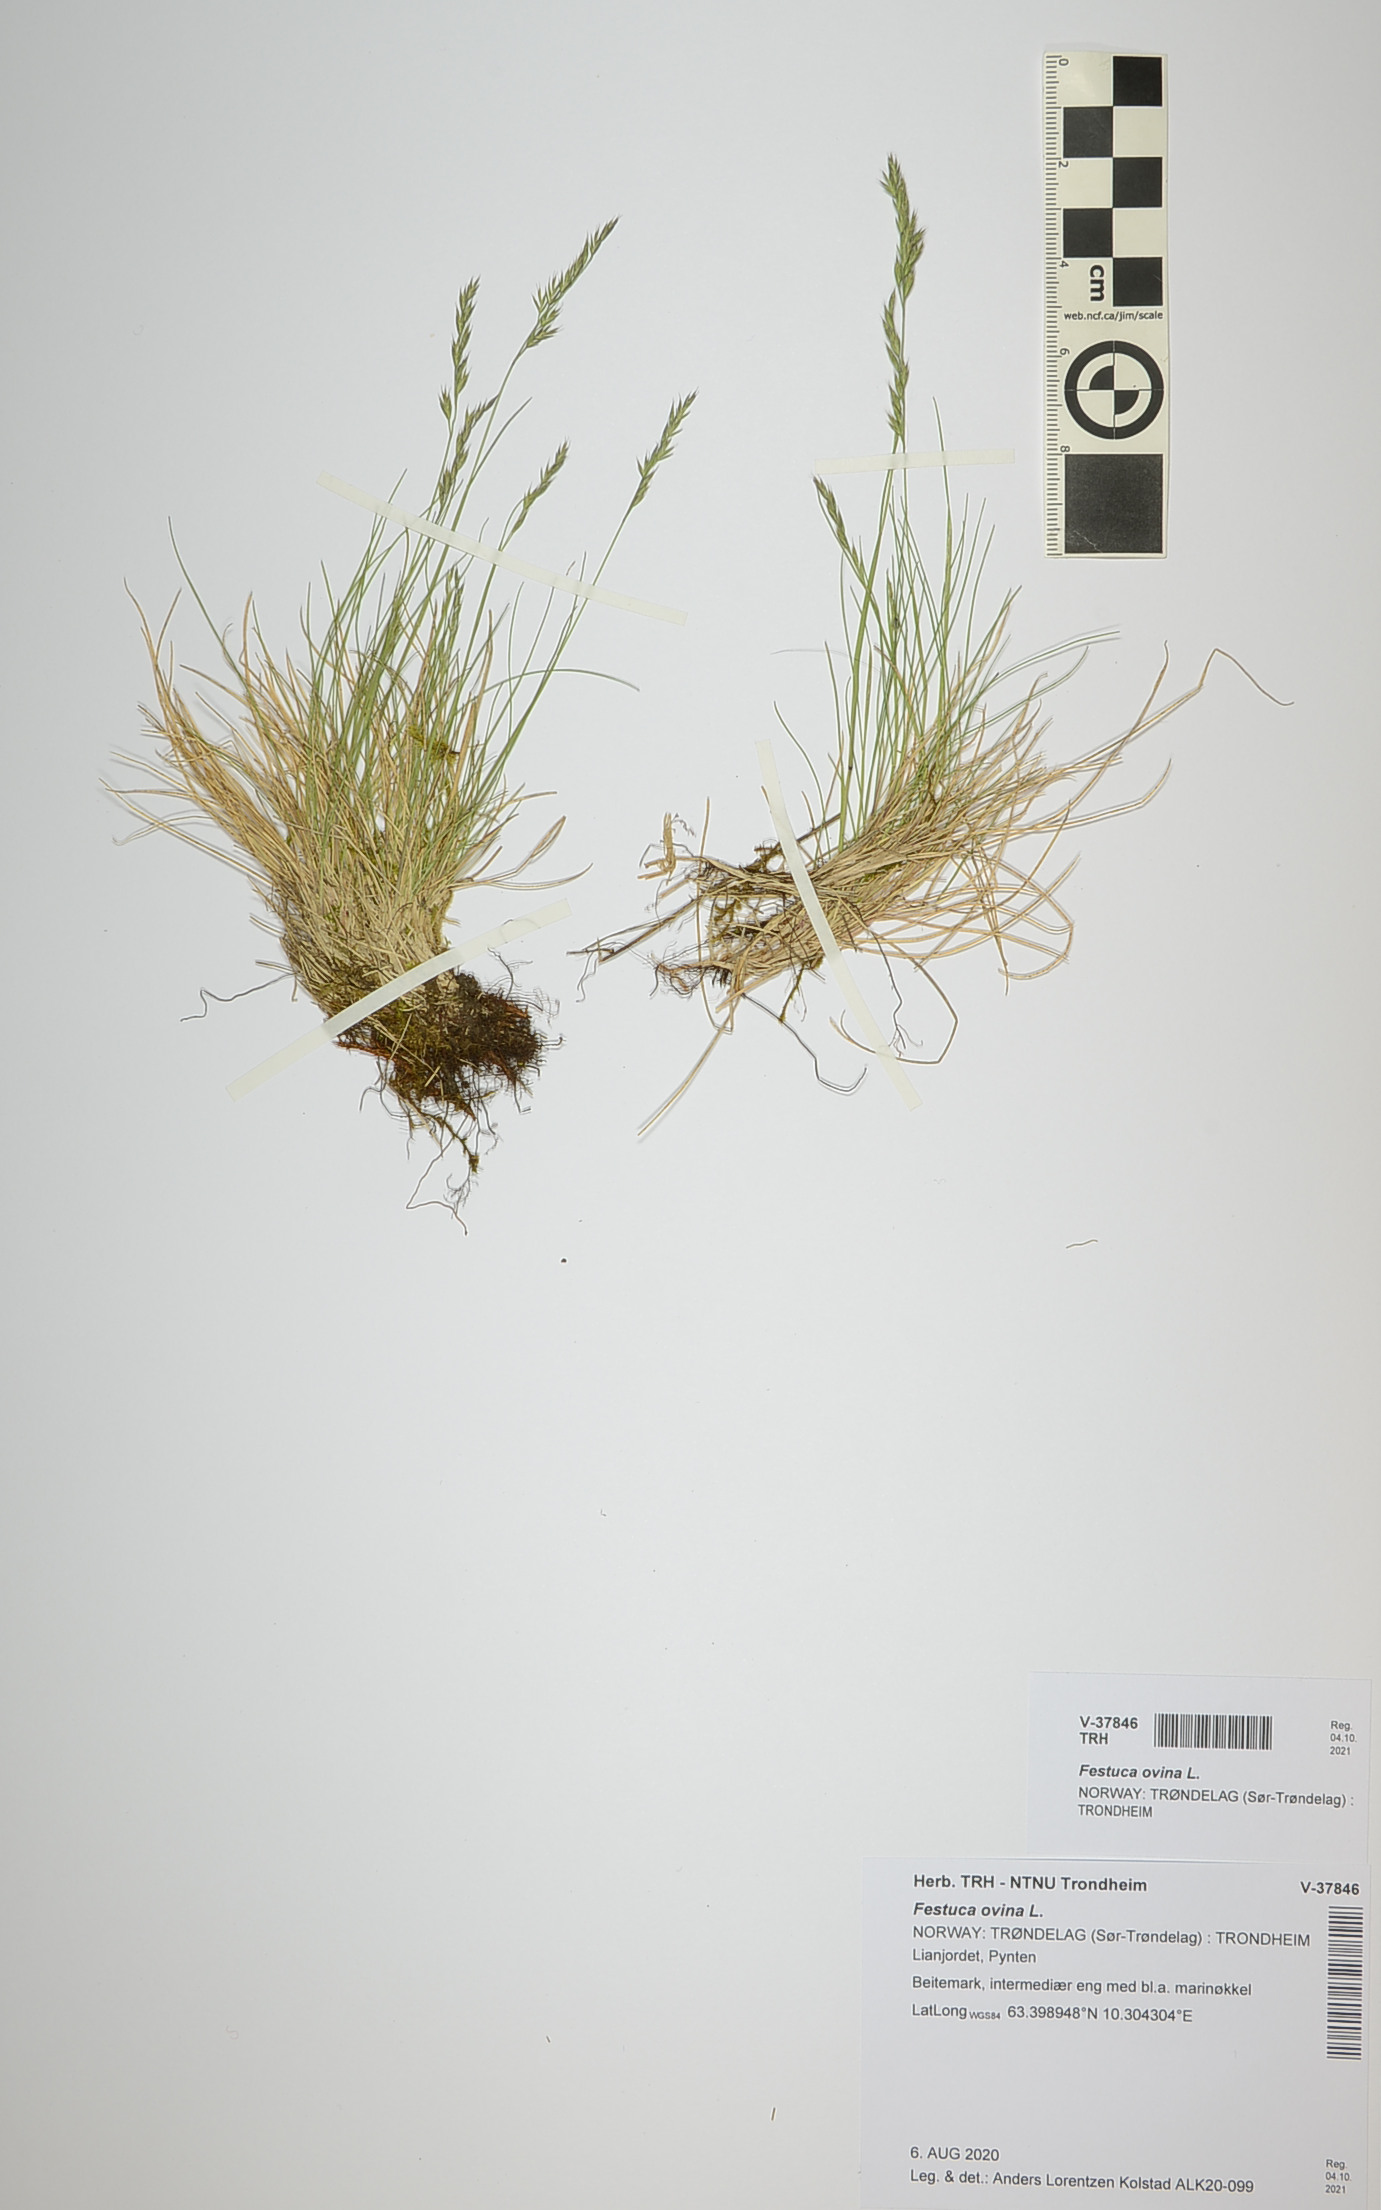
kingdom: Plantae
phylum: Tracheophyta
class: Liliopsida
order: Poales
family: Poaceae
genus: Festuca
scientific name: Festuca ovina
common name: Sheep fescue
